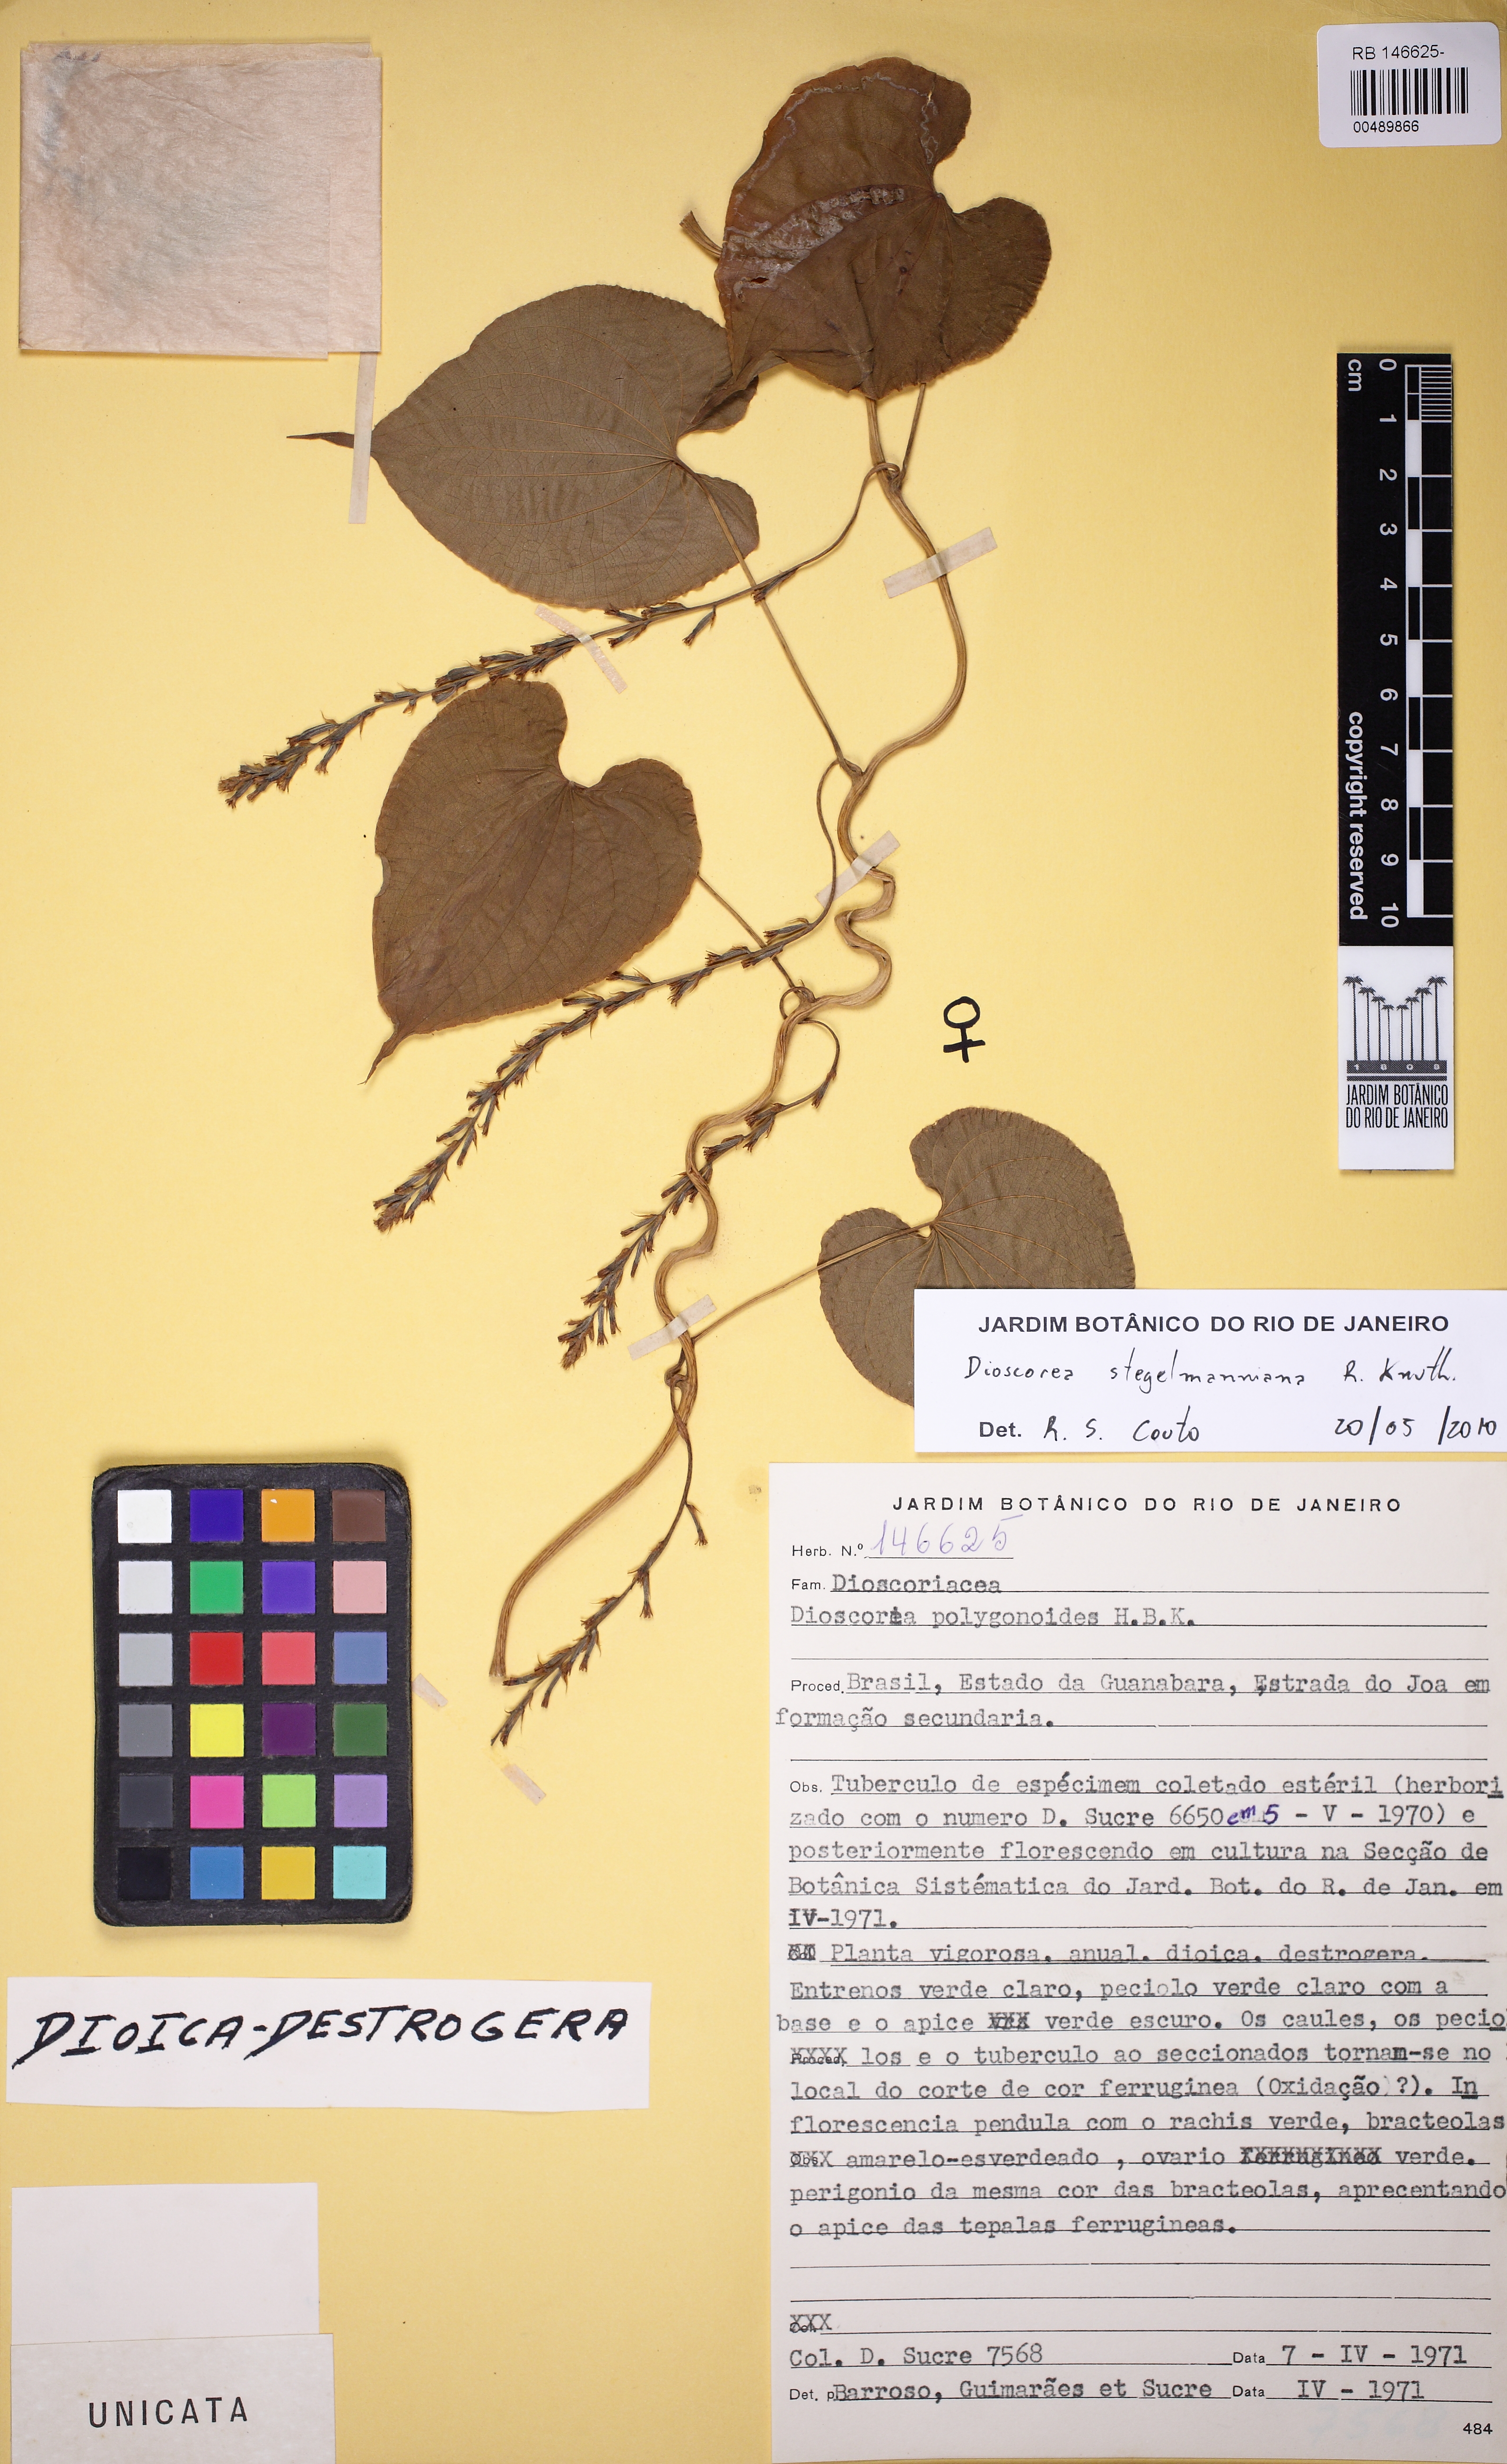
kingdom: Plantae
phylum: Tracheophyta
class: Liliopsida
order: Dioscoreales
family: Dioscoreaceae
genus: Dioscorea
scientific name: Dioscorea stegelmanniana
